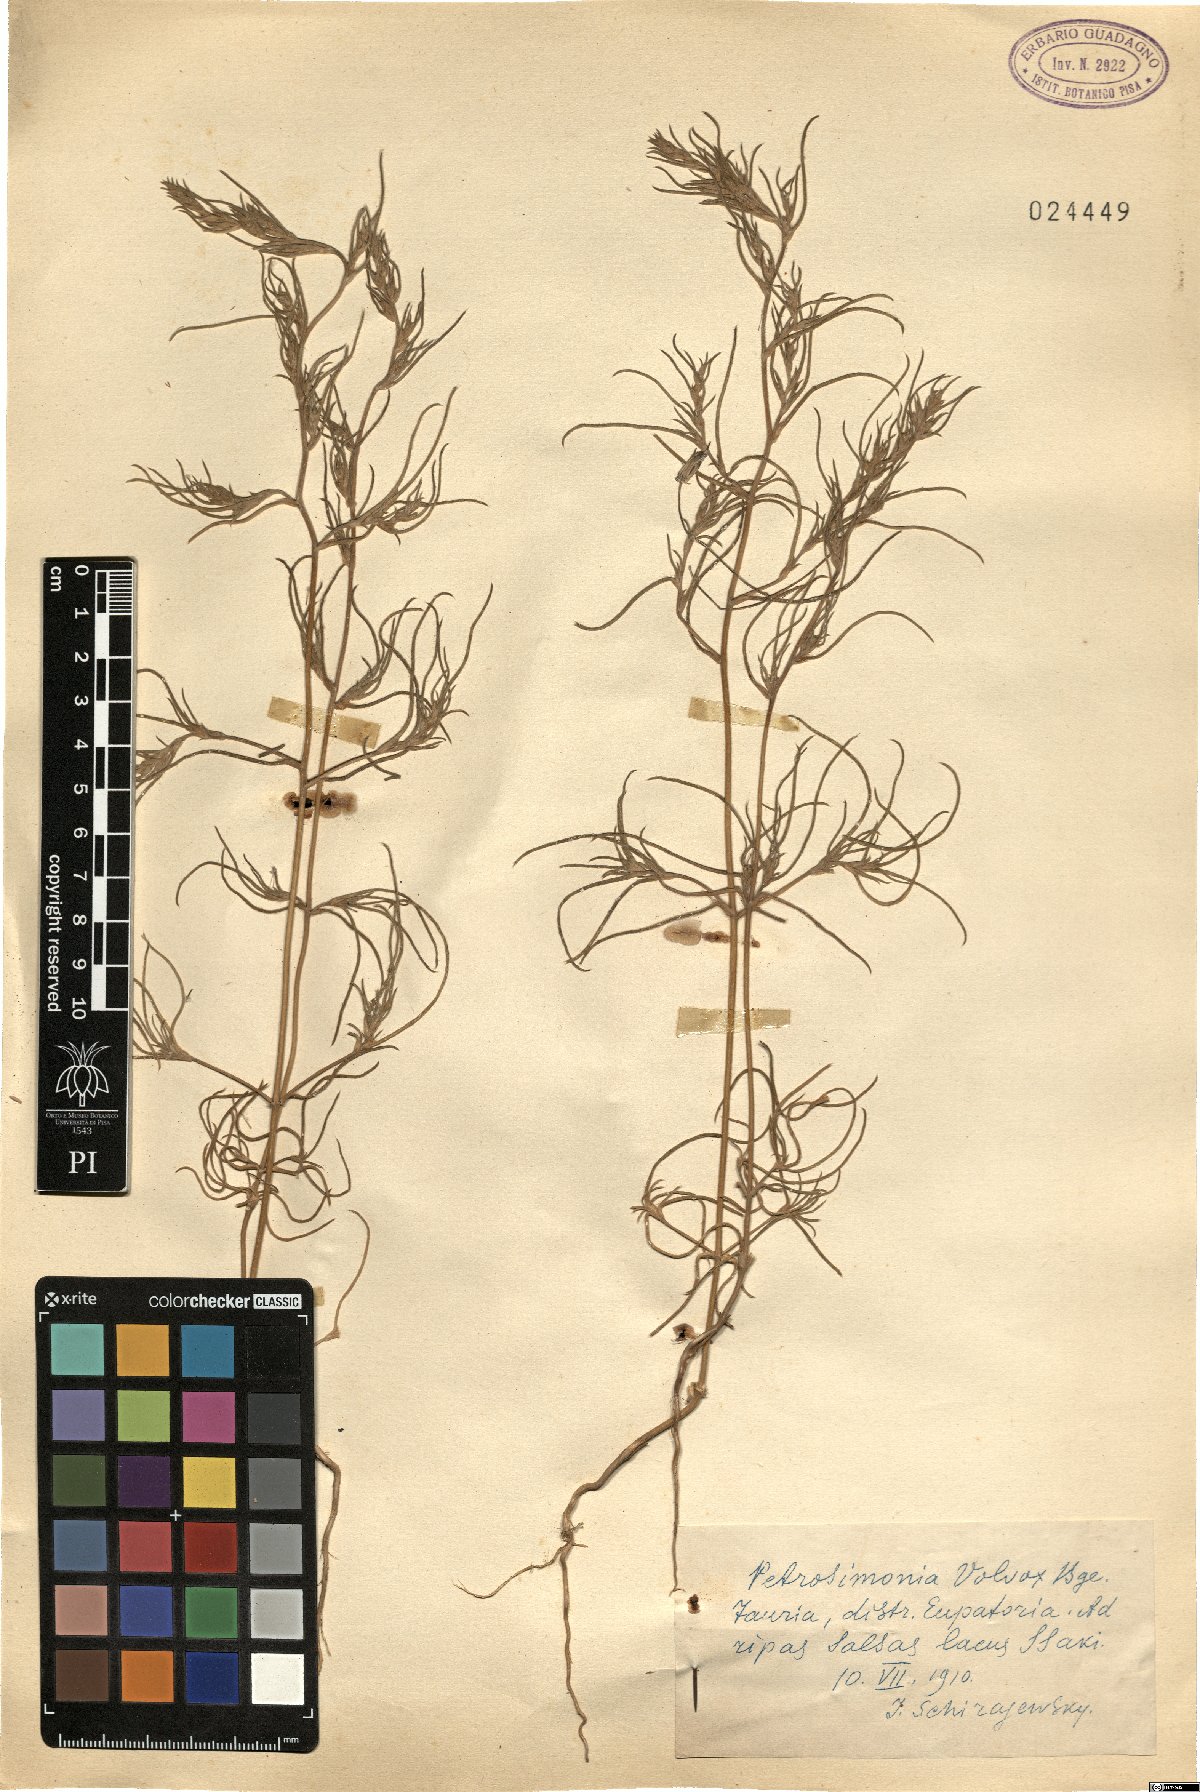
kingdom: Plantae
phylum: Tracheophyta
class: Magnoliopsida
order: Caryophyllales
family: Amaranthaceae
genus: Petrosimonia
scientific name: Petrosimonia triandra
